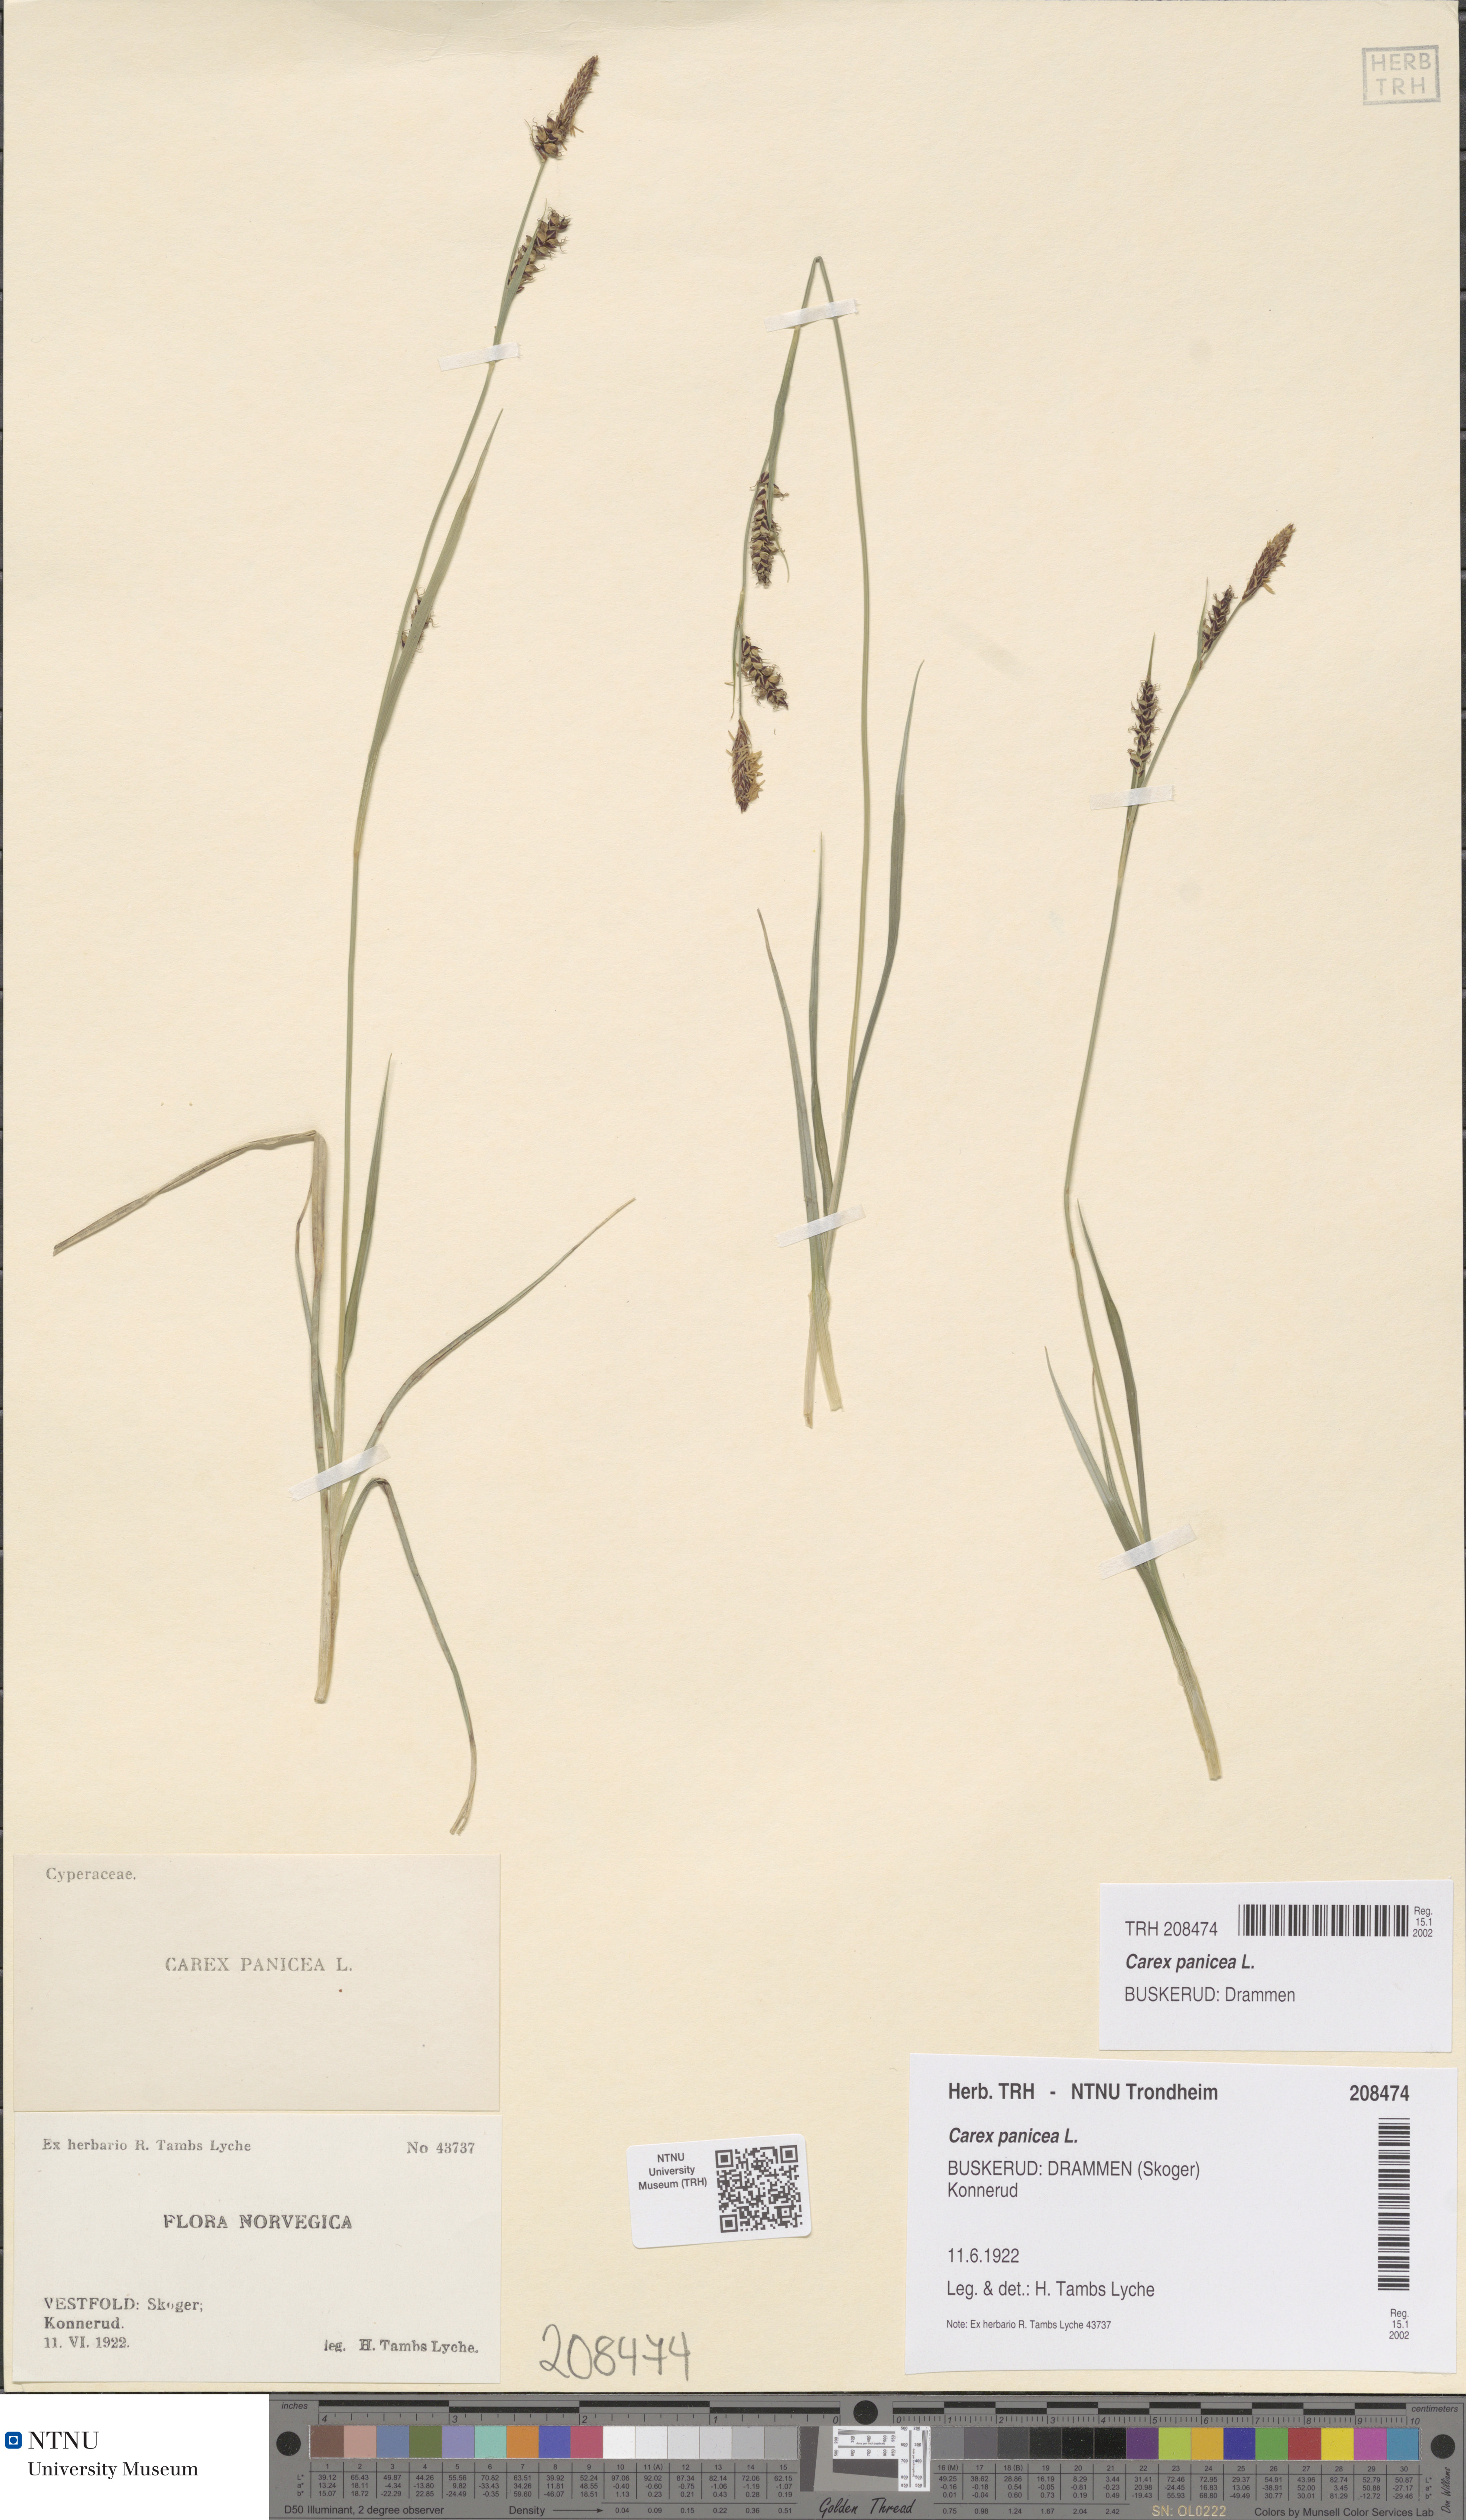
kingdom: Plantae
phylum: Tracheophyta
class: Liliopsida
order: Poales
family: Cyperaceae
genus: Carex
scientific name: Carex panicea
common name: Carnation sedge
